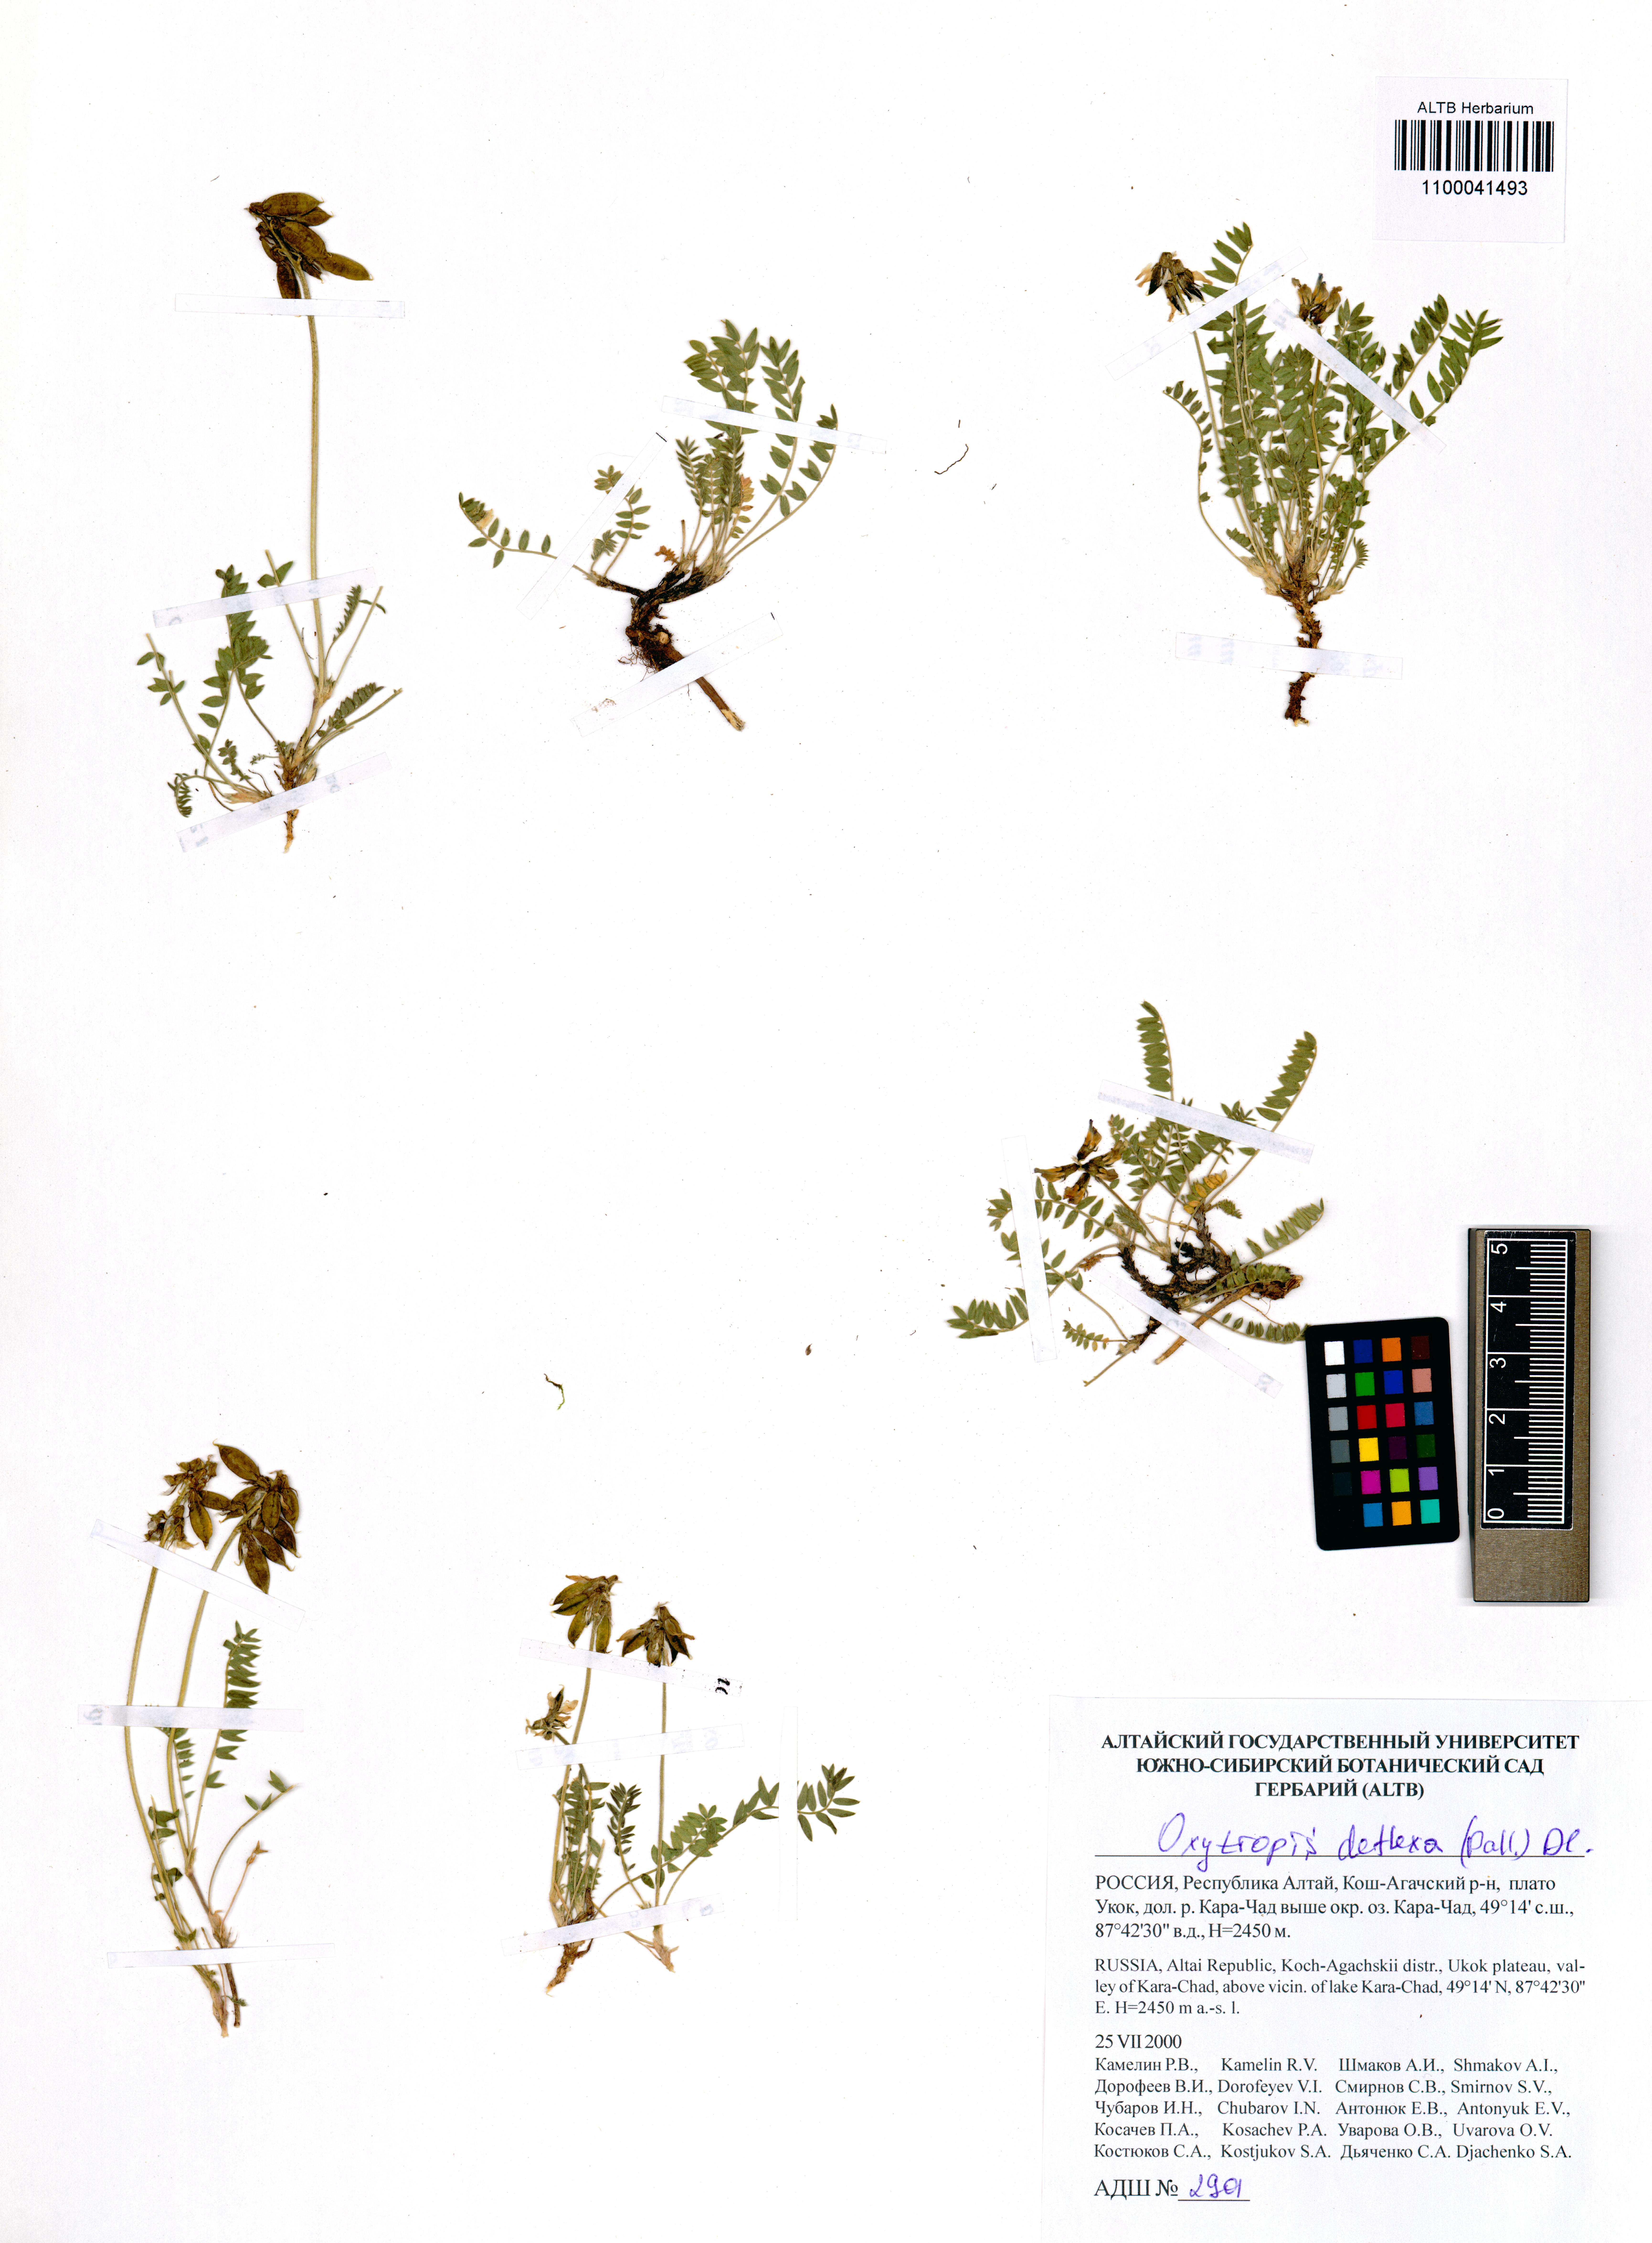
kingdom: Plantae
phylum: Tracheophyta
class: Magnoliopsida
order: Fabales
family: Fabaceae
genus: Oxytropis
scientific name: Oxytropis deflexa
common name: Stemmed oxytrope
